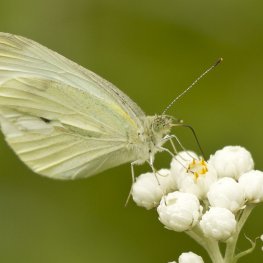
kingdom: Animalia
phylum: Arthropoda
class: Insecta
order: Lepidoptera
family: Pieridae
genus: Pieris
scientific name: Pieris rapae
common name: Cabbage White
